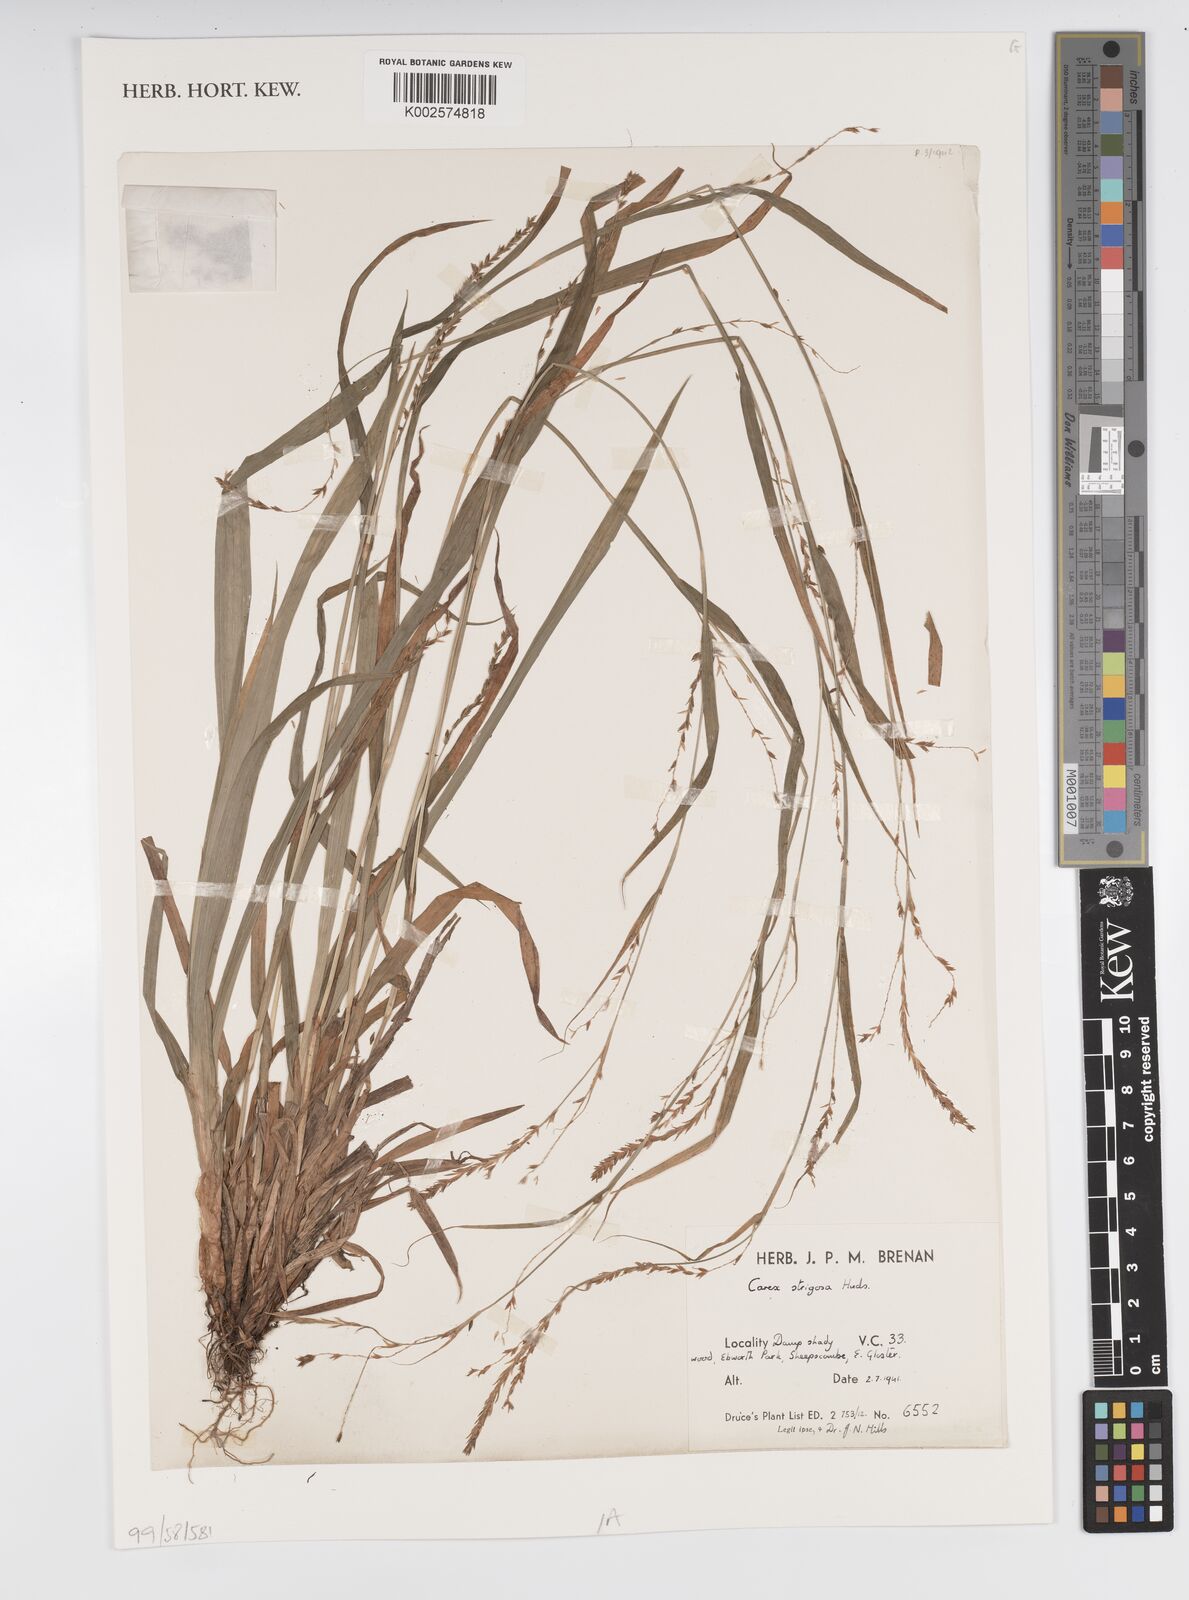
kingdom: Plantae
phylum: Tracheophyta
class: Liliopsida
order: Poales
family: Cyperaceae
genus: Carex
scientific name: Carex strigosa
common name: Thin-spiked wood-sedge
